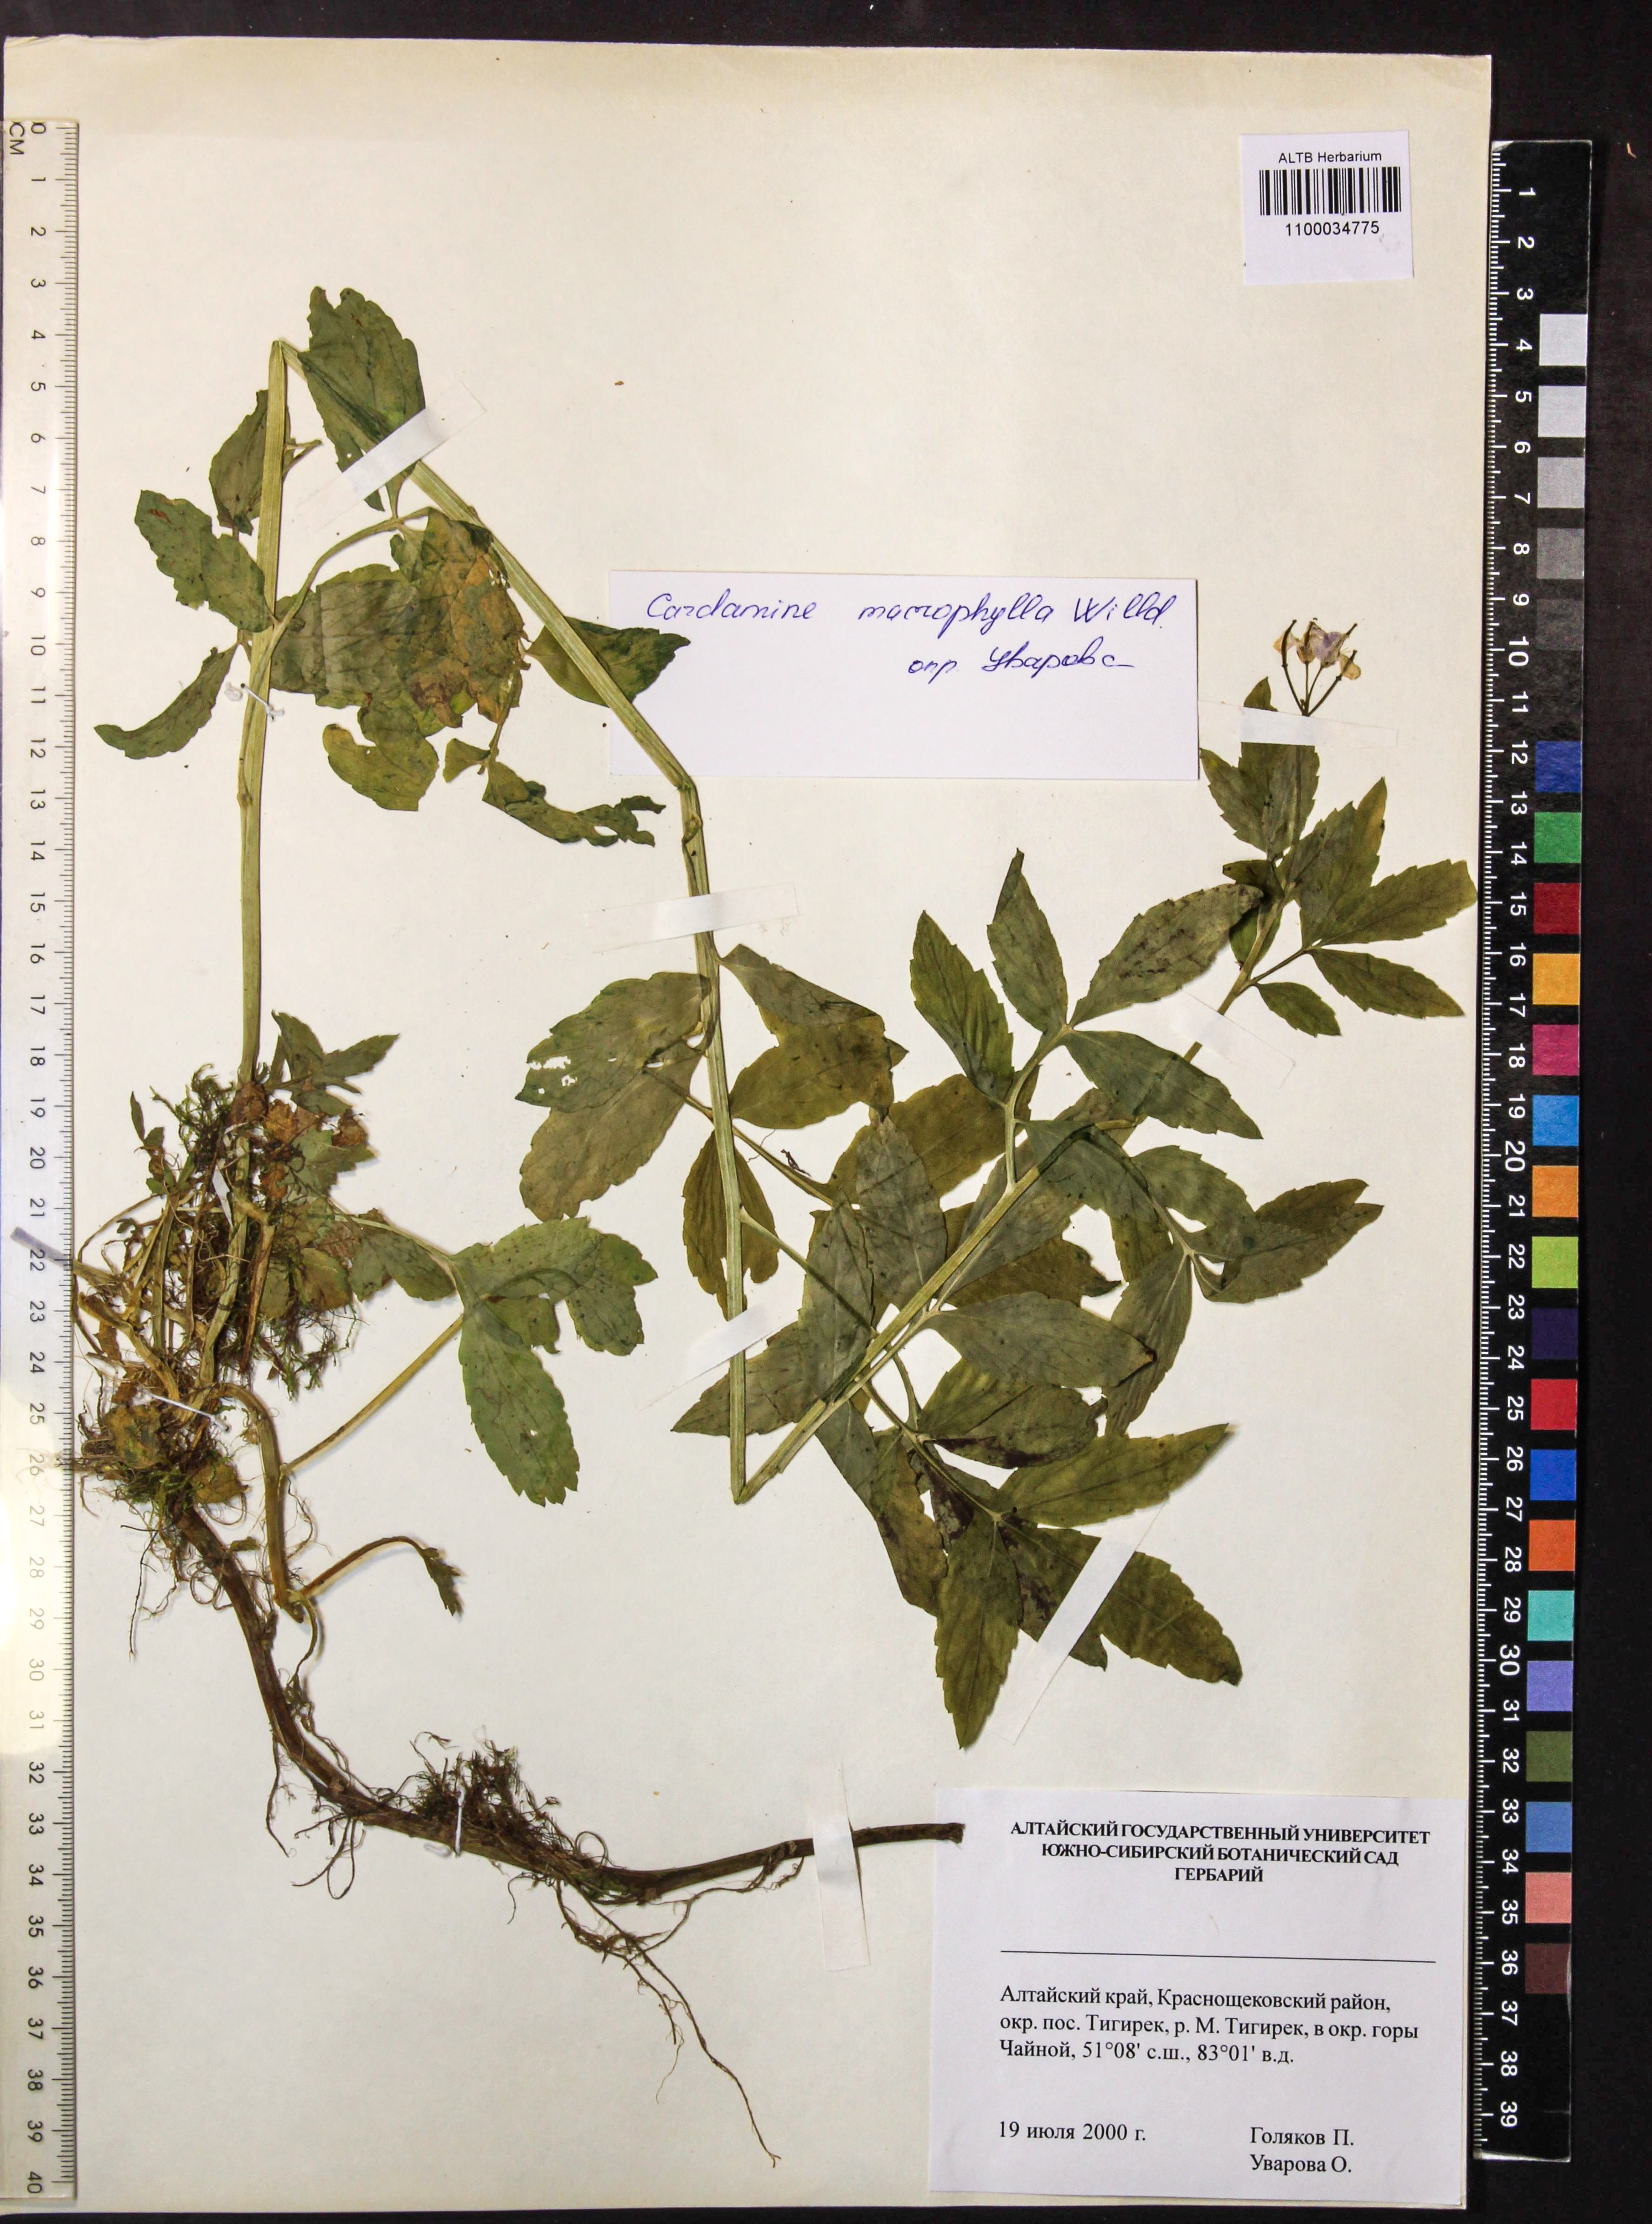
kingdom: Plantae
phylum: Tracheophyta
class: Magnoliopsida
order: Brassicales
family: Brassicaceae
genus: Cardamine
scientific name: Cardamine macrophylla
